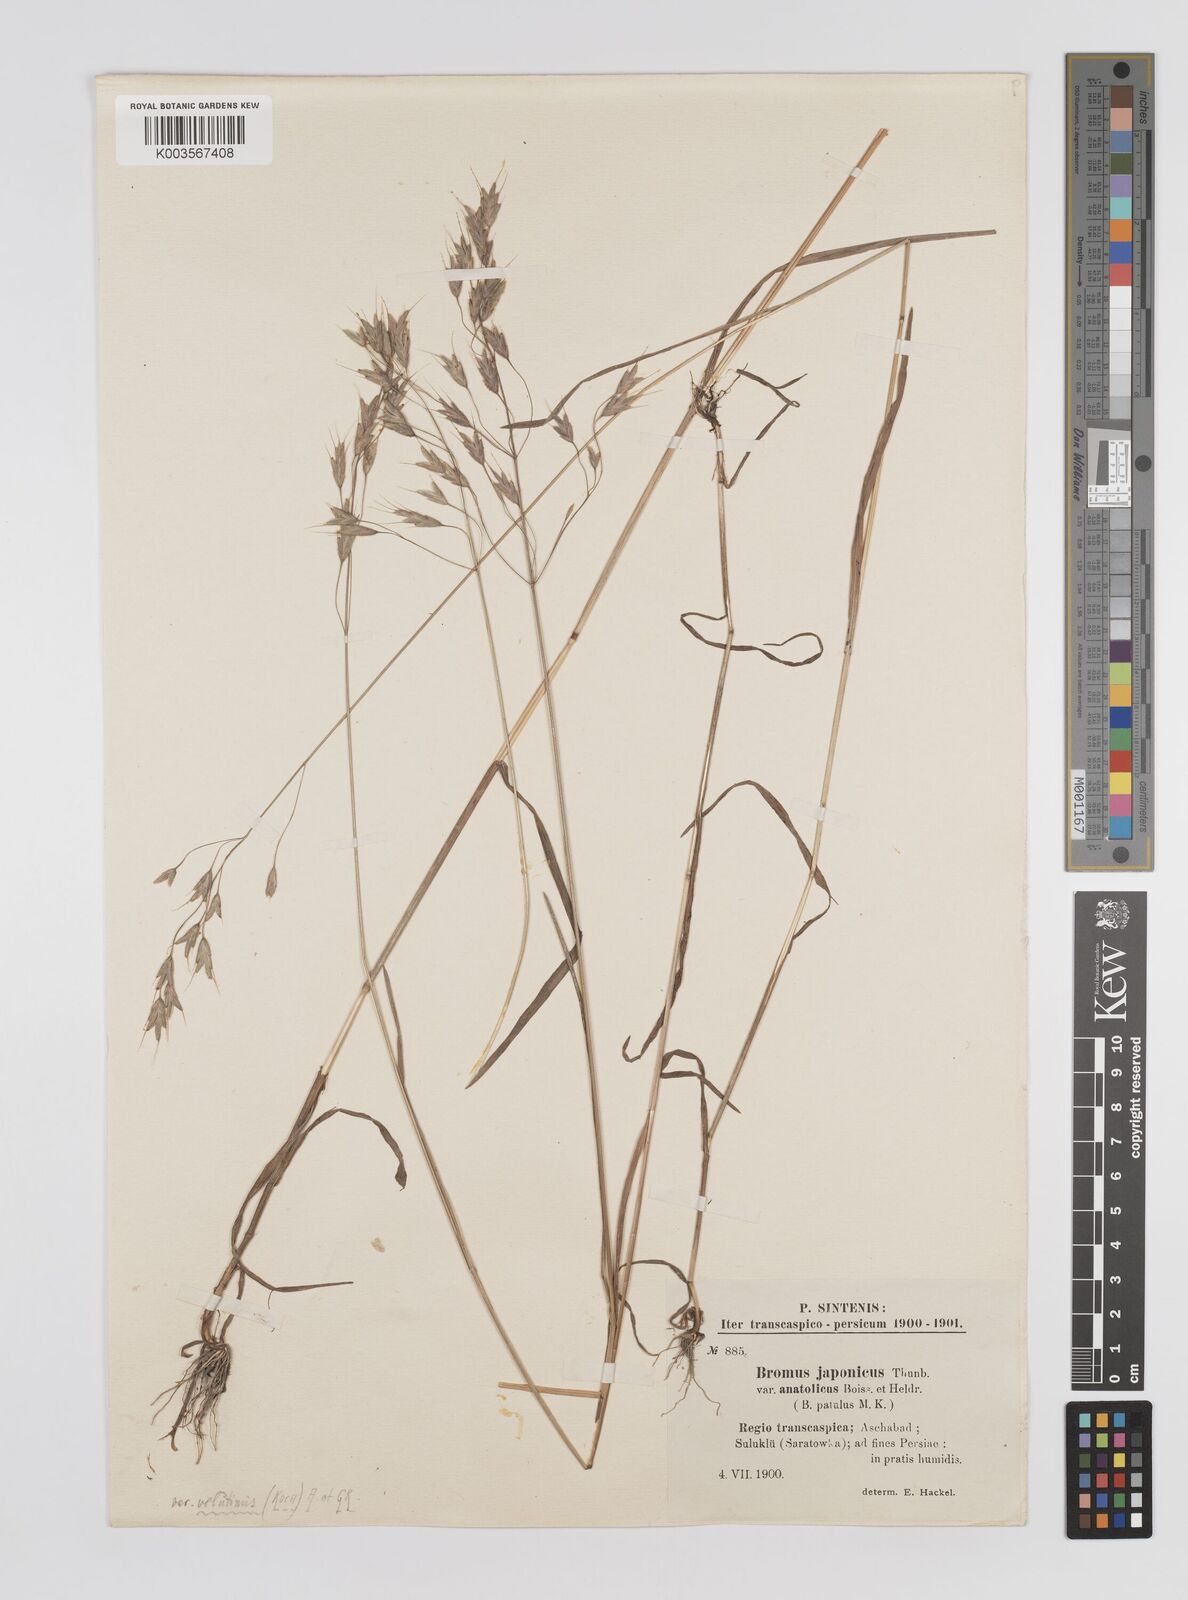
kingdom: Plantae
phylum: Tracheophyta
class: Liliopsida
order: Poales
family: Poaceae
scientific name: Poaceae
